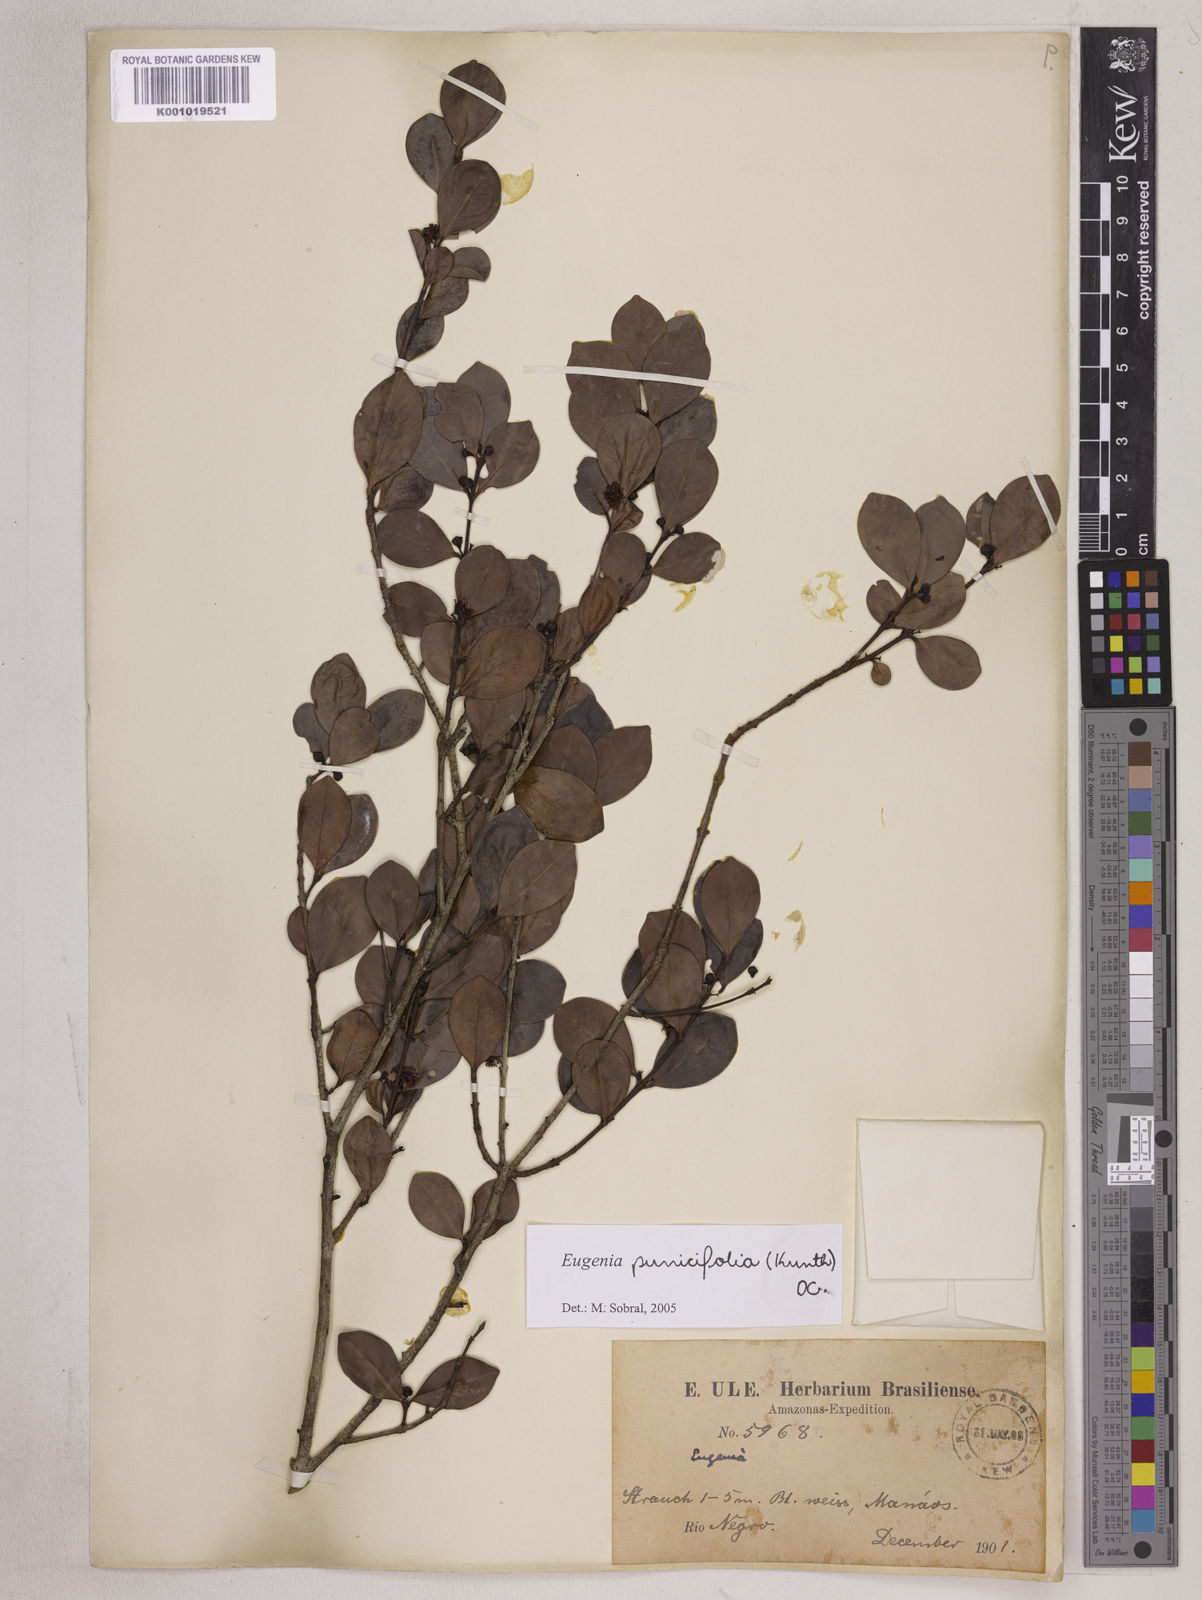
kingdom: Plantae
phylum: Tracheophyta
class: Magnoliopsida
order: Myrtales
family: Myrtaceae
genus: Eugenia
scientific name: Eugenia punicifolia
